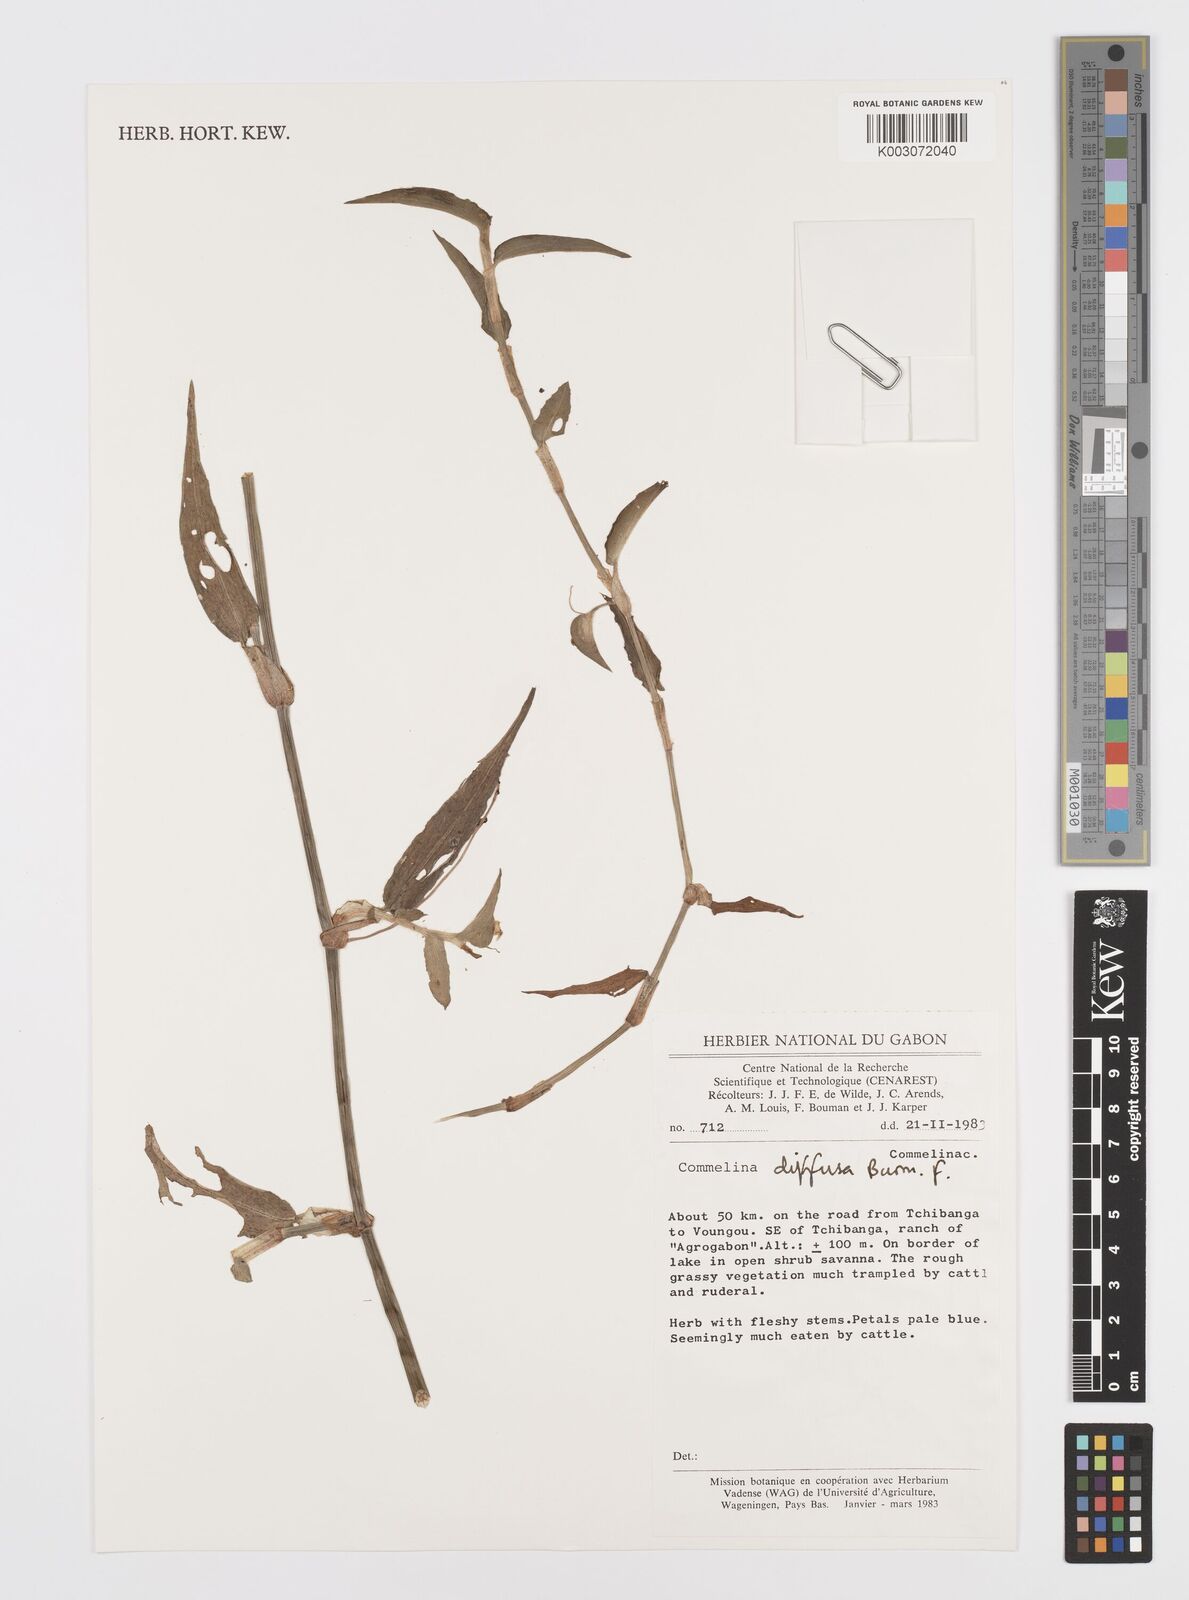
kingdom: Plantae
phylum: Tracheophyta
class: Liliopsida
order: Commelinales
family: Commelinaceae
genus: Commelina
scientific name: Commelina diffusa
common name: Climbing dayflower
